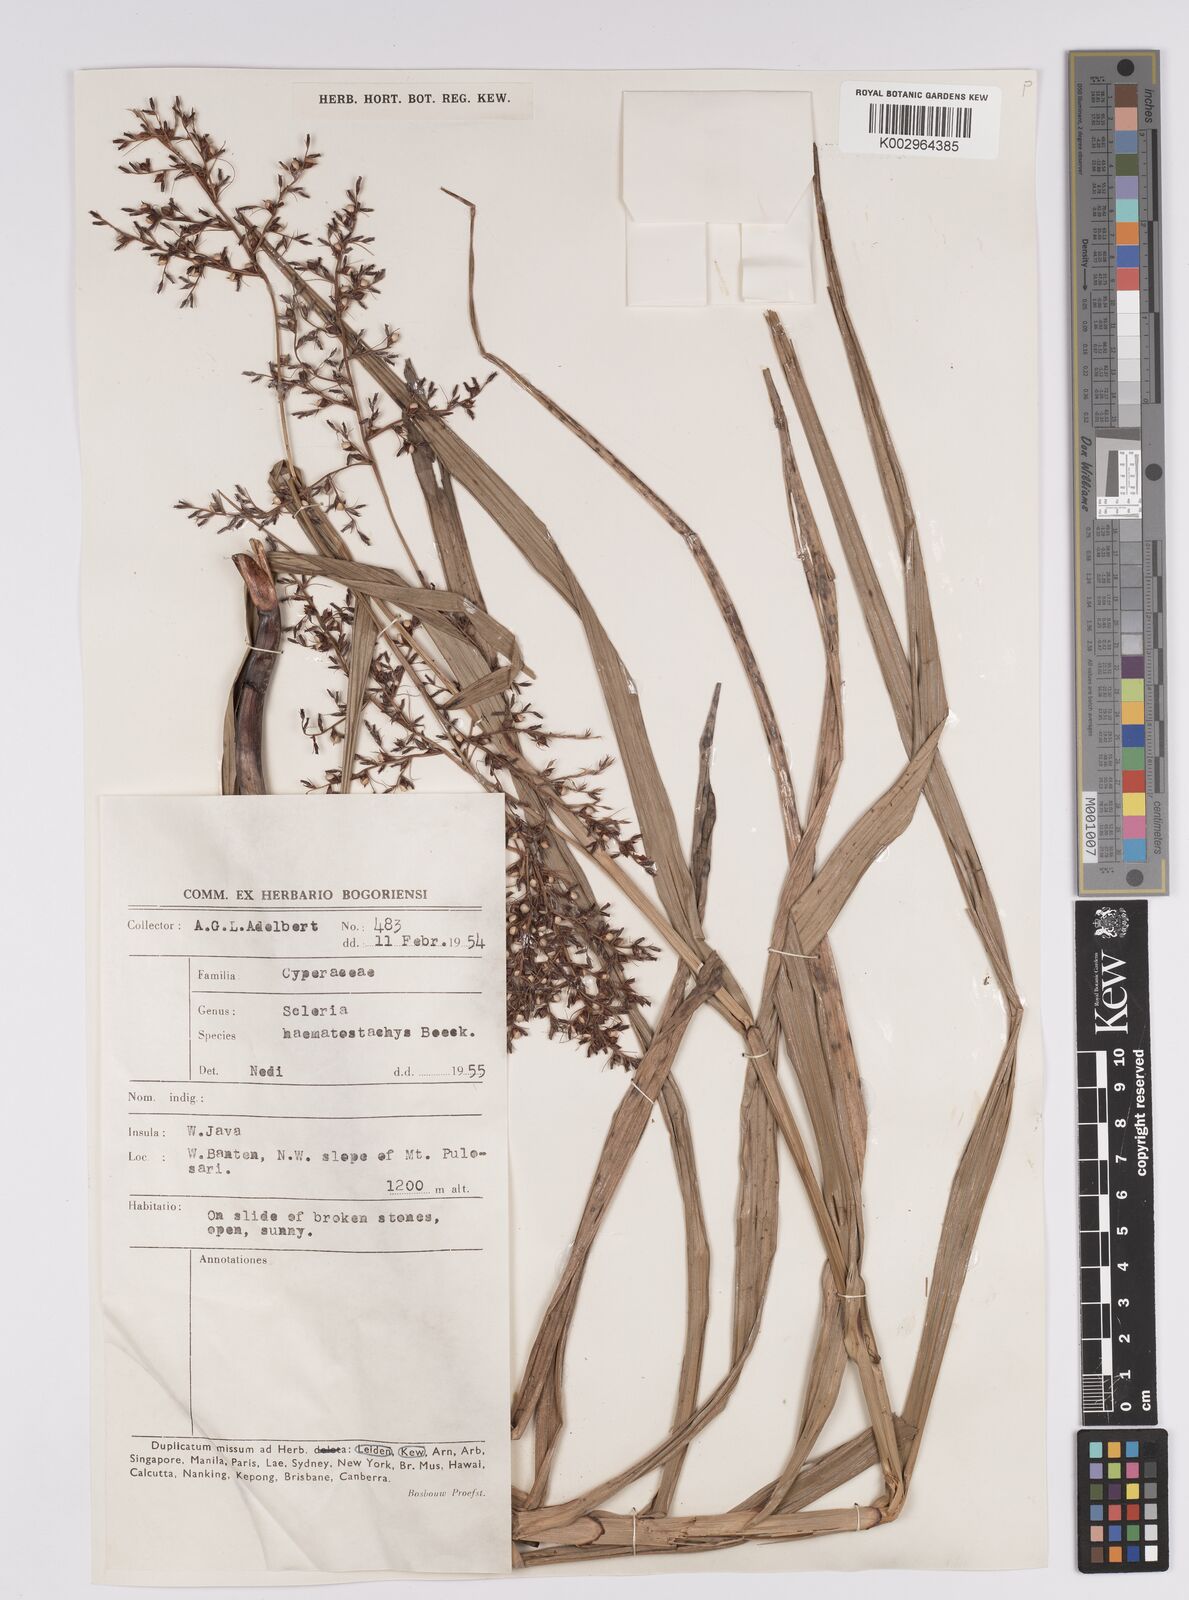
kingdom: Plantae
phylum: Tracheophyta
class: Liliopsida
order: Poales
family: Cyperaceae
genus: Scleria
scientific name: Scleria terrestris
